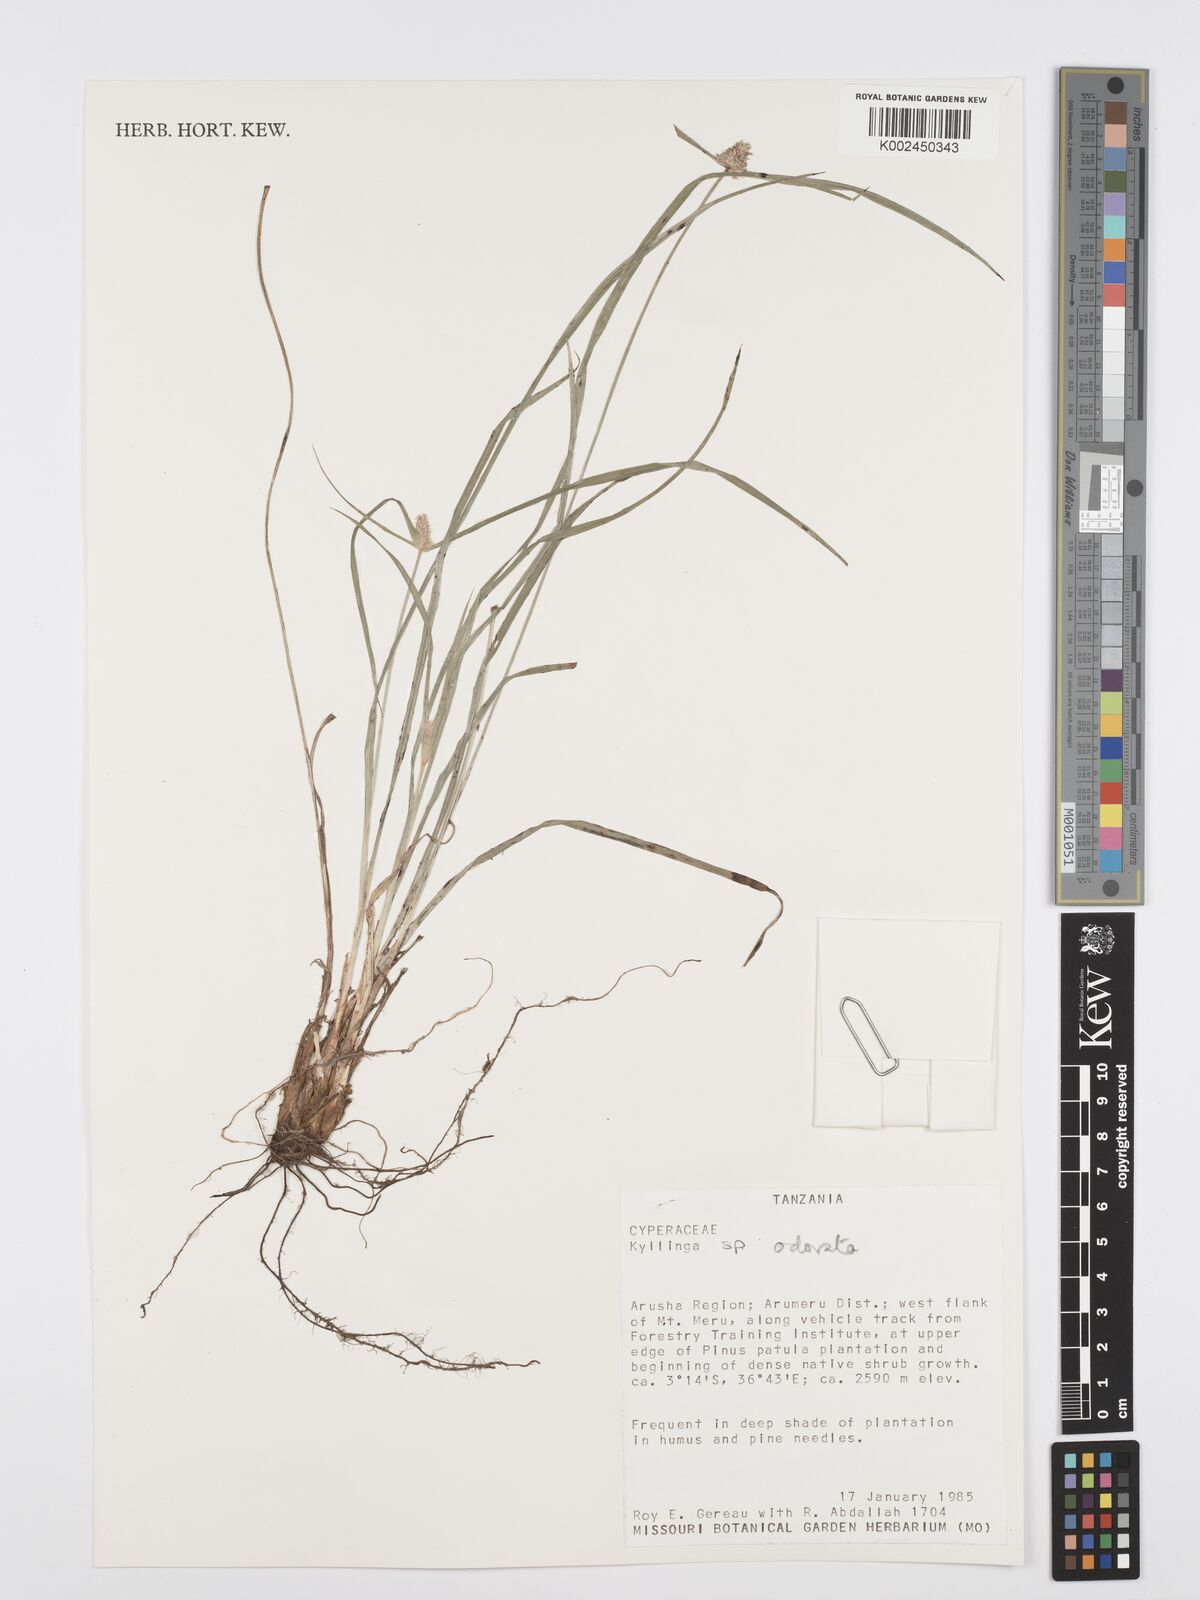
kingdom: Plantae
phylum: Tracheophyta
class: Liliopsida
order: Poales
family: Cyperaceae
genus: Cyperus
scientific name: Cyperus
